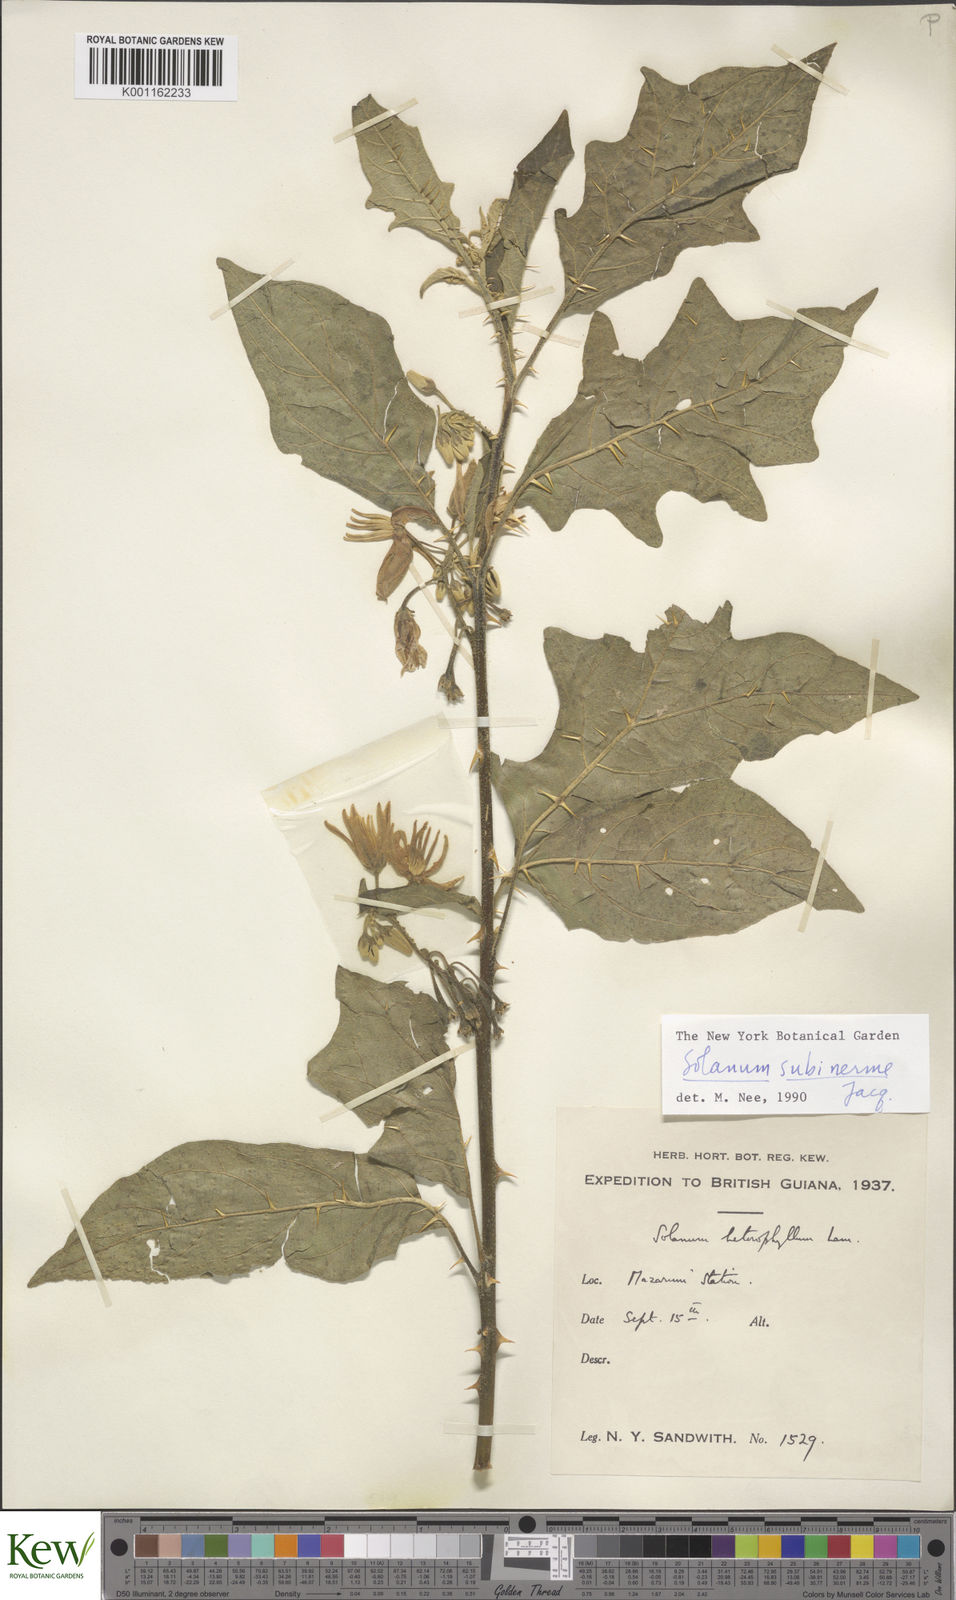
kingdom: Plantae
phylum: Tracheophyta
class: Magnoliopsida
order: Solanales
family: Solanaceae
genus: Solanum
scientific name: Solanum subinerme
